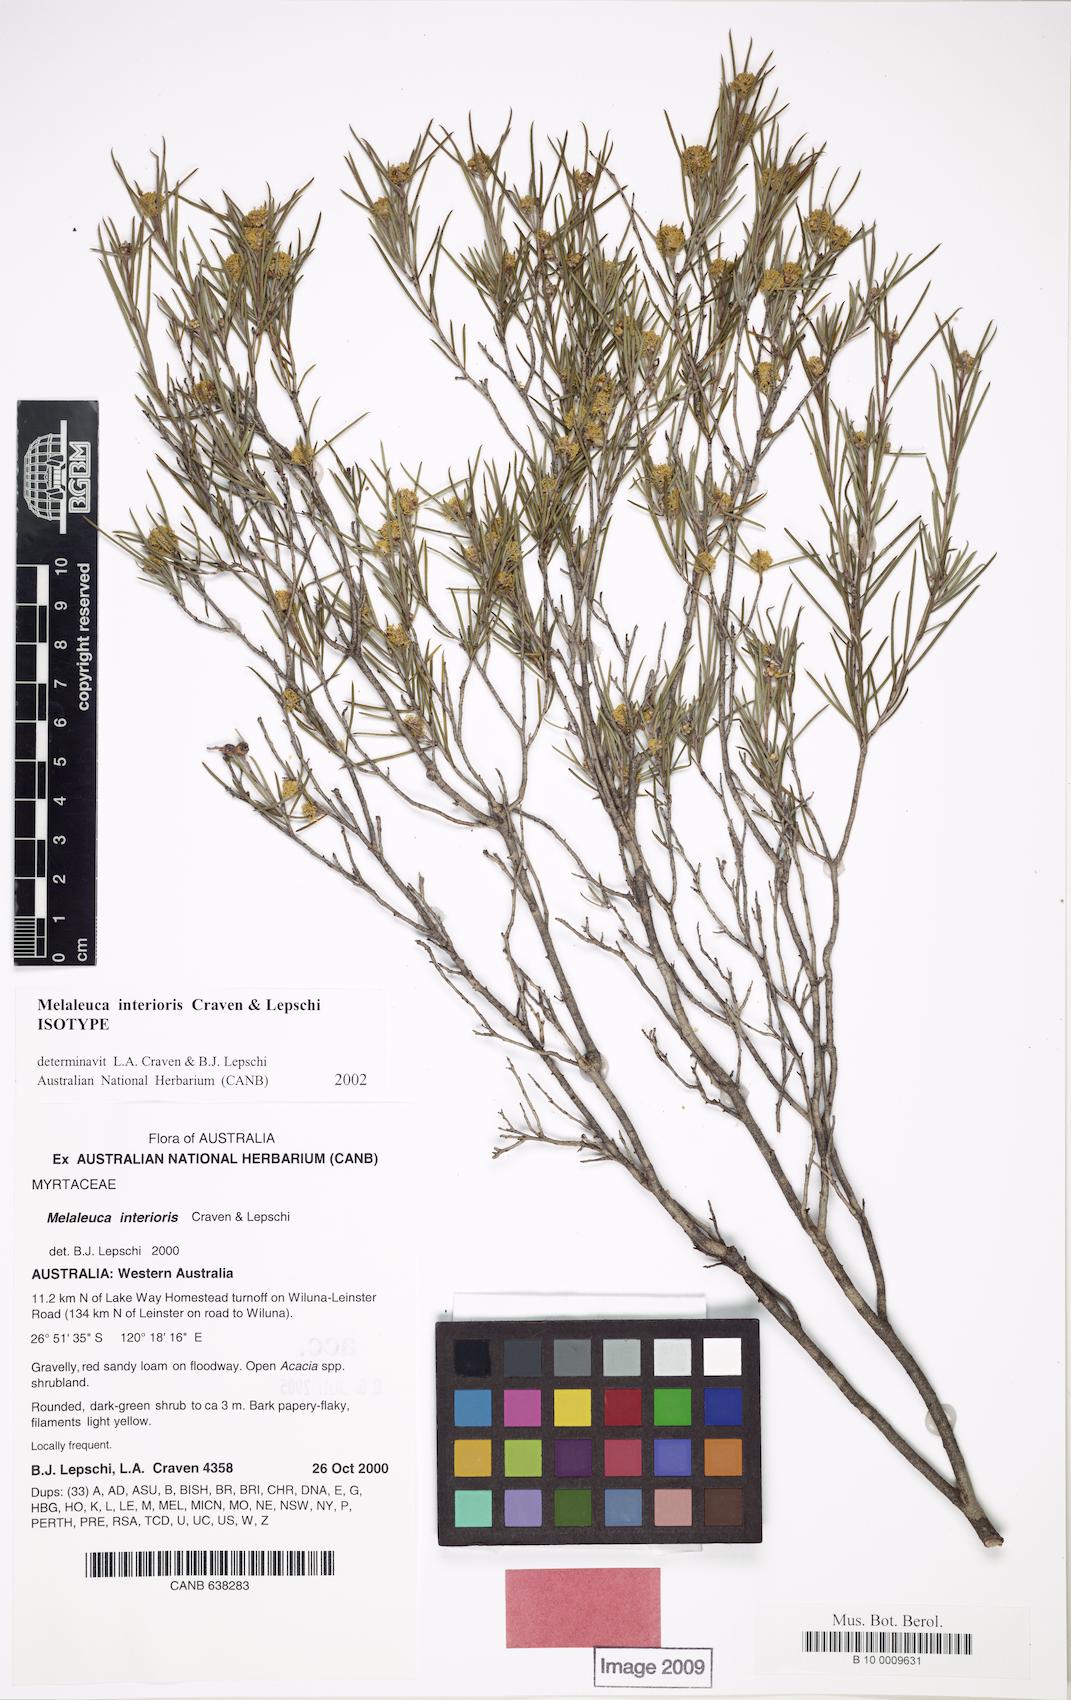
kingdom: Plantae
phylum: Tracheophyta
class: Magnoliopsida
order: Myrtales
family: Myrtaceae
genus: Melaleuca
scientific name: Melaleuca interioris
